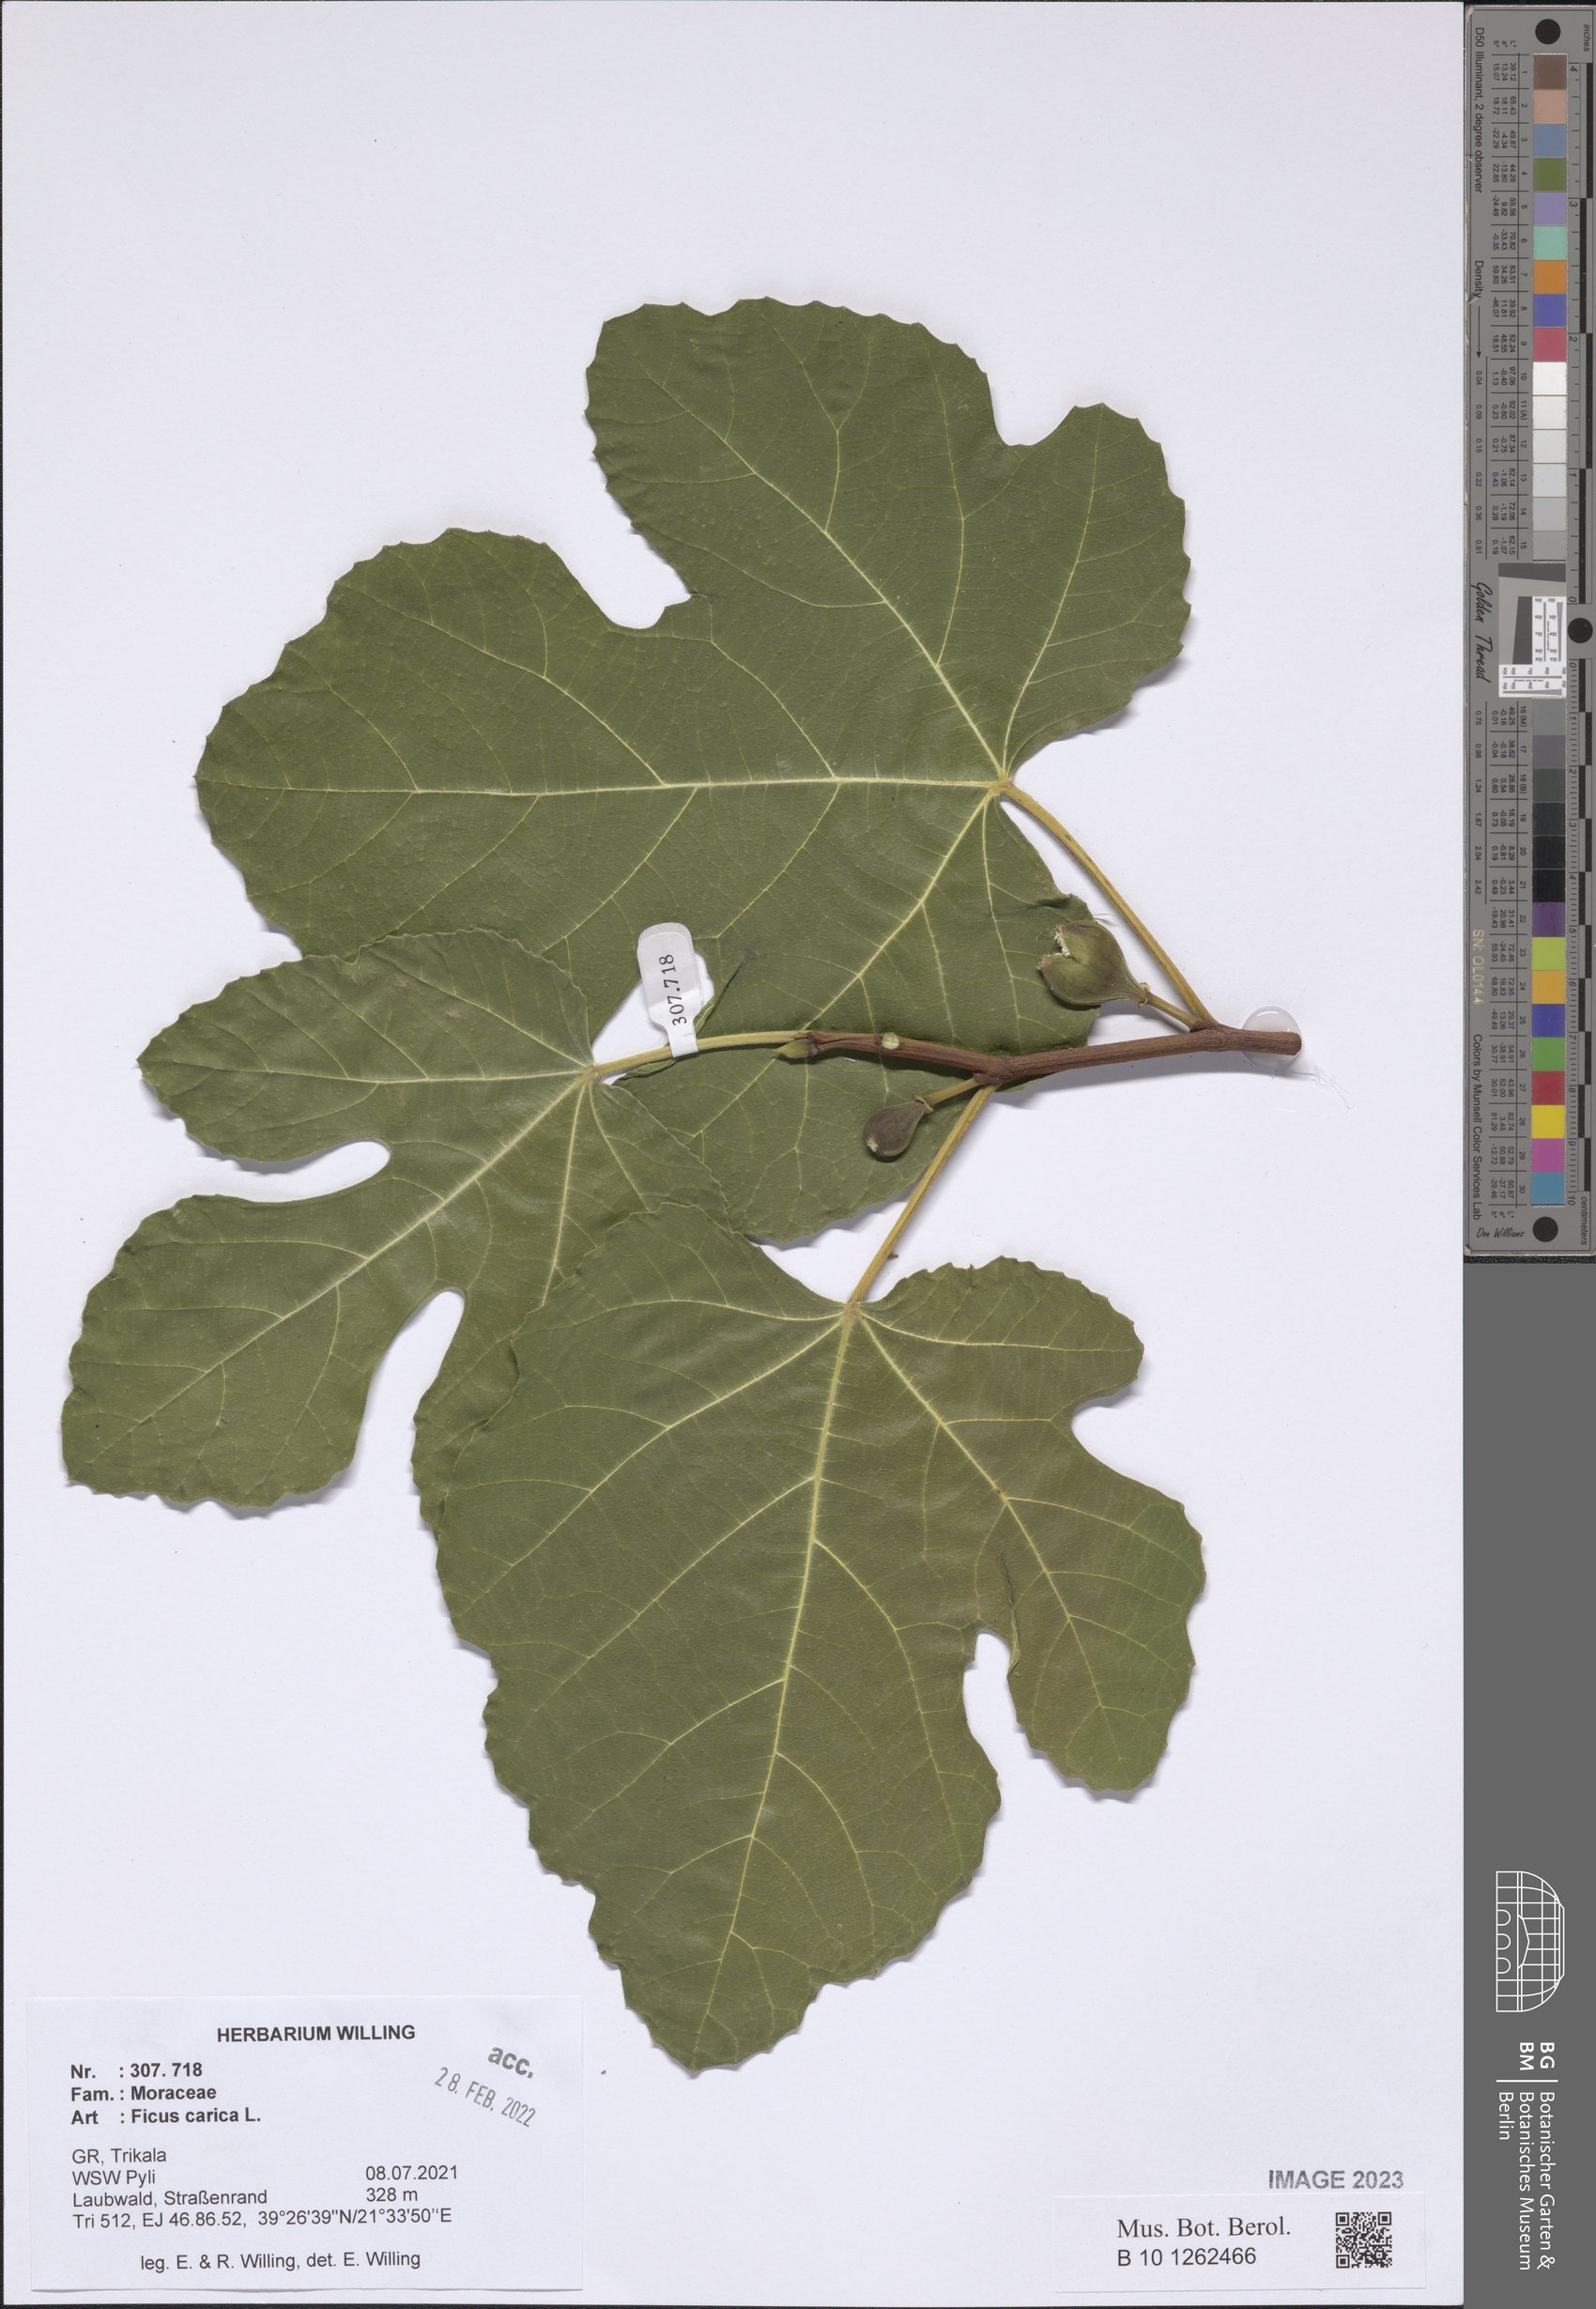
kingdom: Plantae
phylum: Tracheophyta
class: Magnoliopsida
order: Rosales
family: Moraceae
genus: Ficus
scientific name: Ficus carica
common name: Fig
